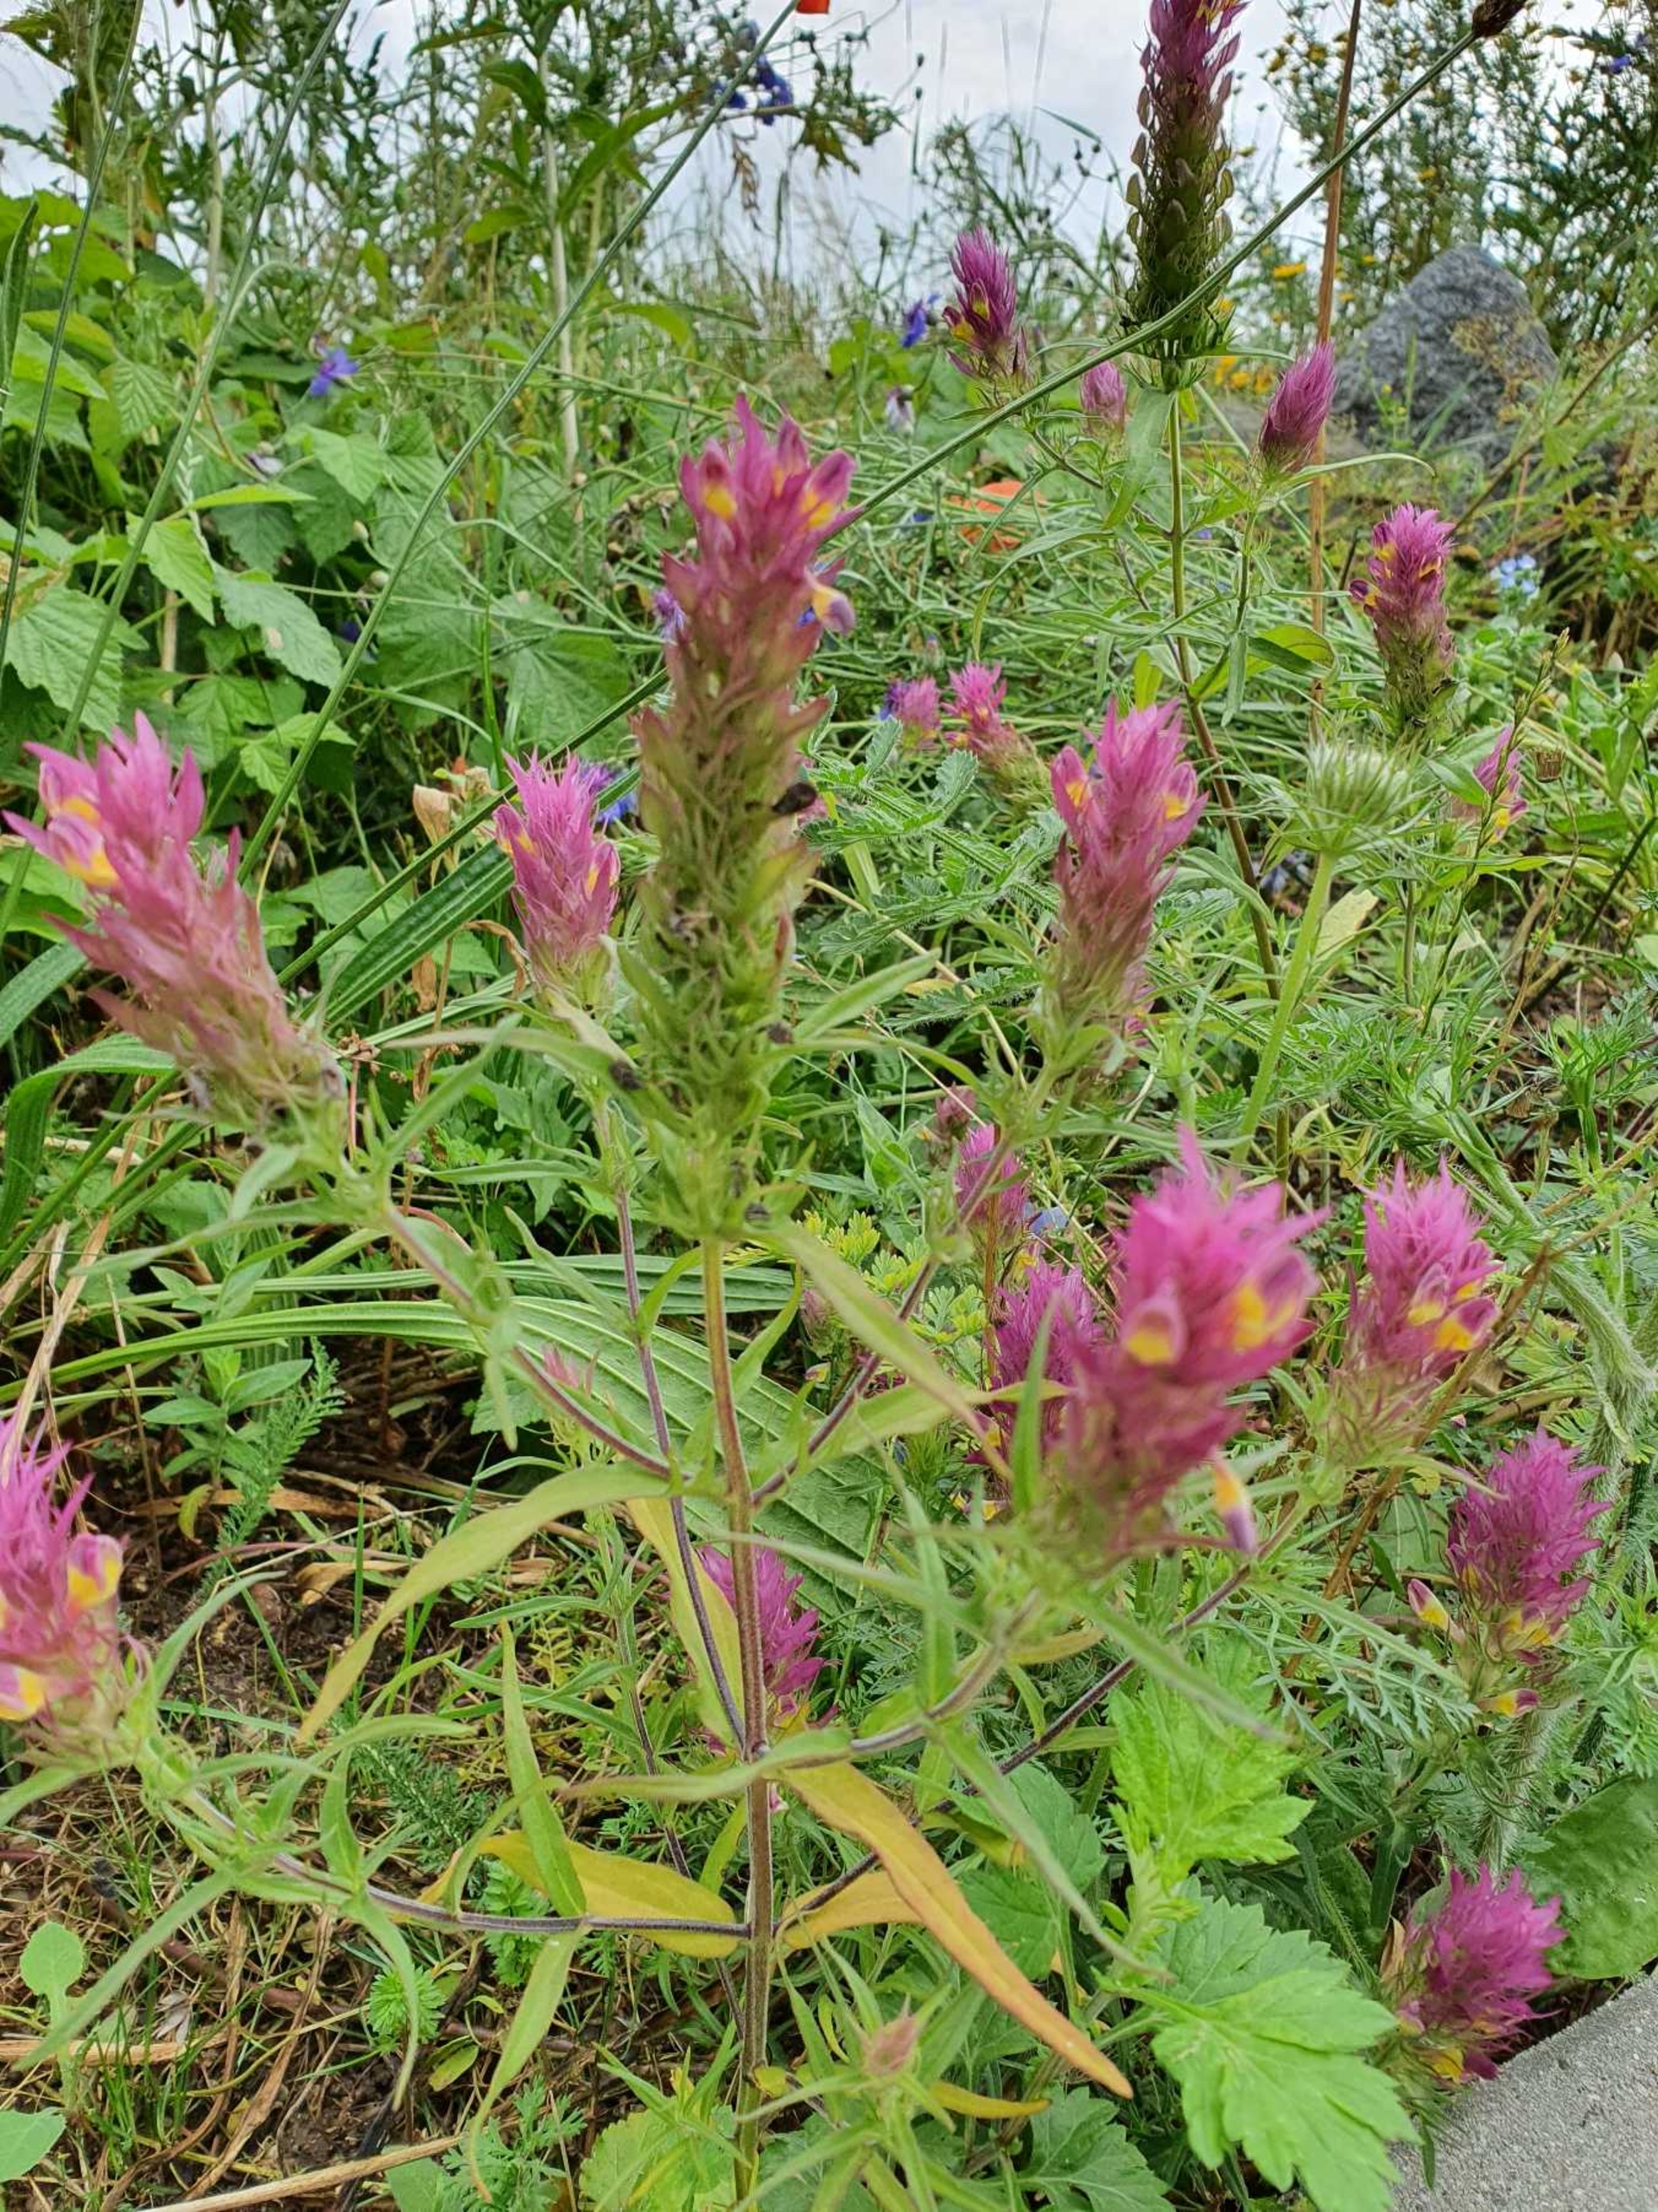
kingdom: Plantae
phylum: Tracheophyta
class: Magnoliopsida
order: Lamiales
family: Orobanchaceae
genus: Melampyrum
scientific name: Melampyrum arvense
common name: Ager-kohvede
